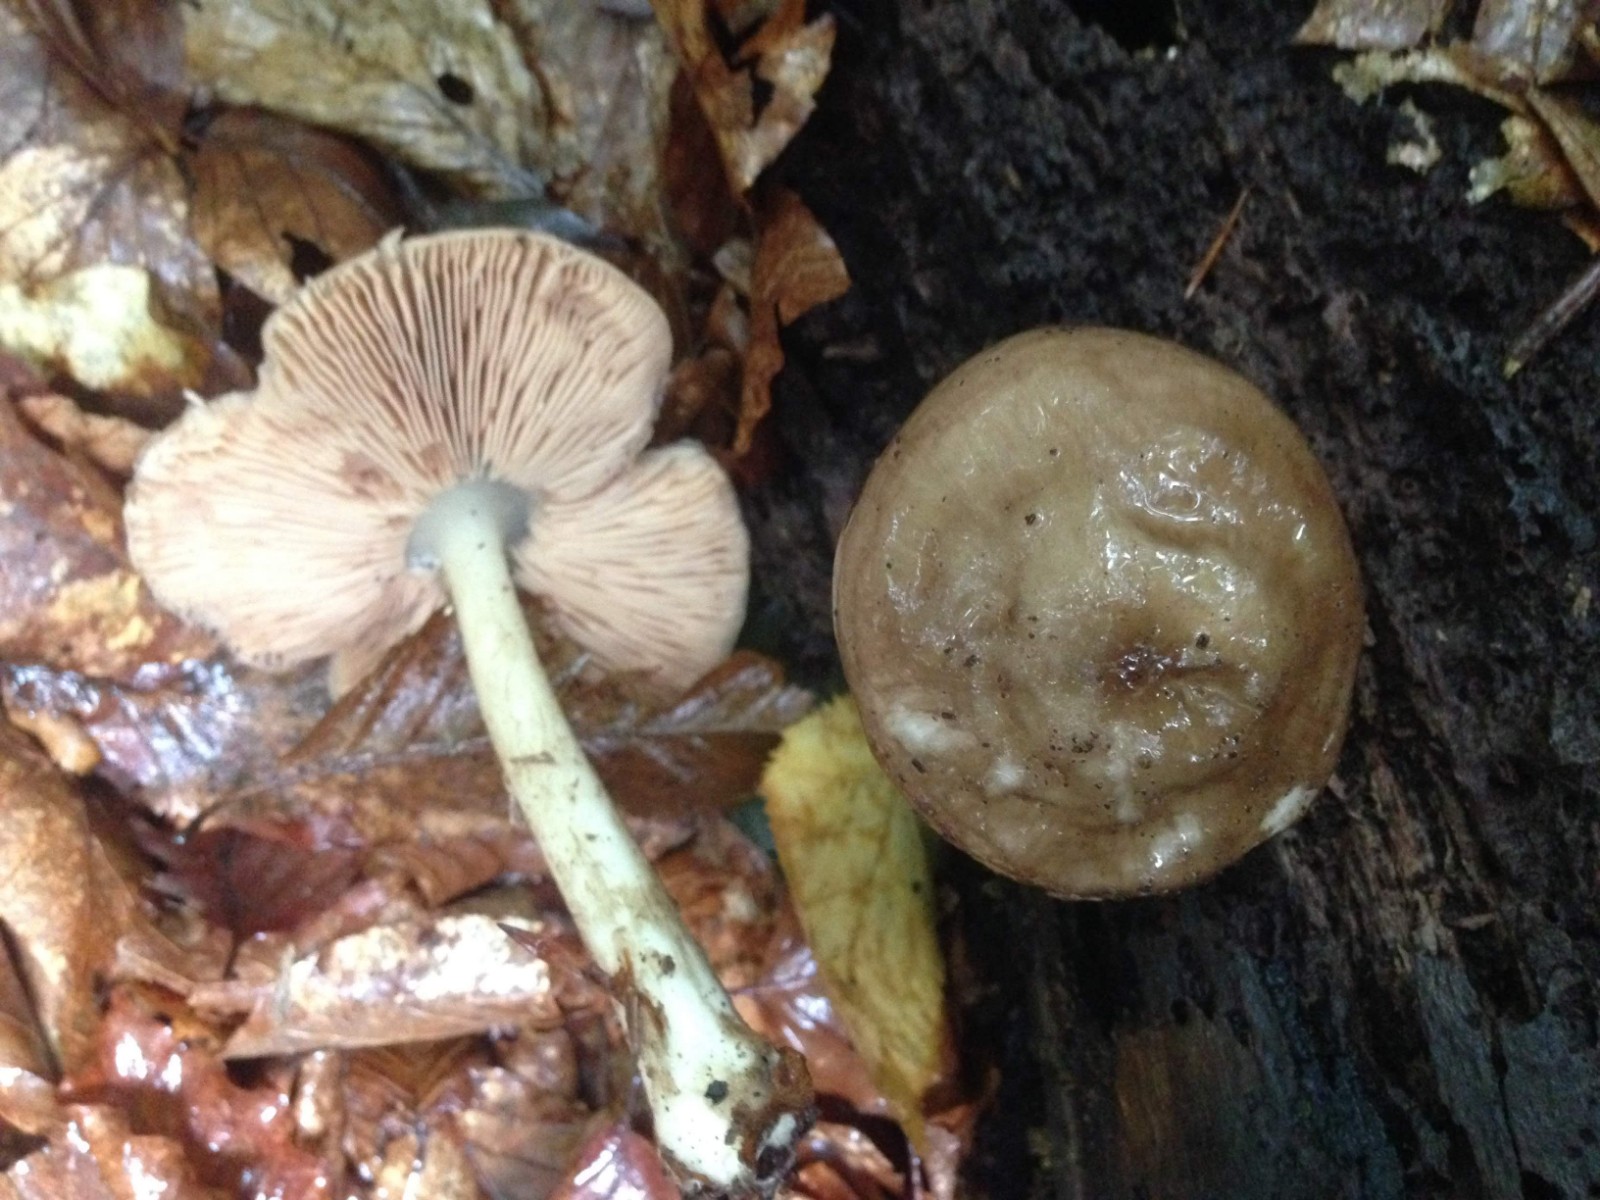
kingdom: Fungi
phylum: Basidiomycota
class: Agaricomycetes
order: Agaricales
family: Pluteaceae
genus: Pluteus
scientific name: Pluteus cervinus
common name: sodfarvet skærmhat
